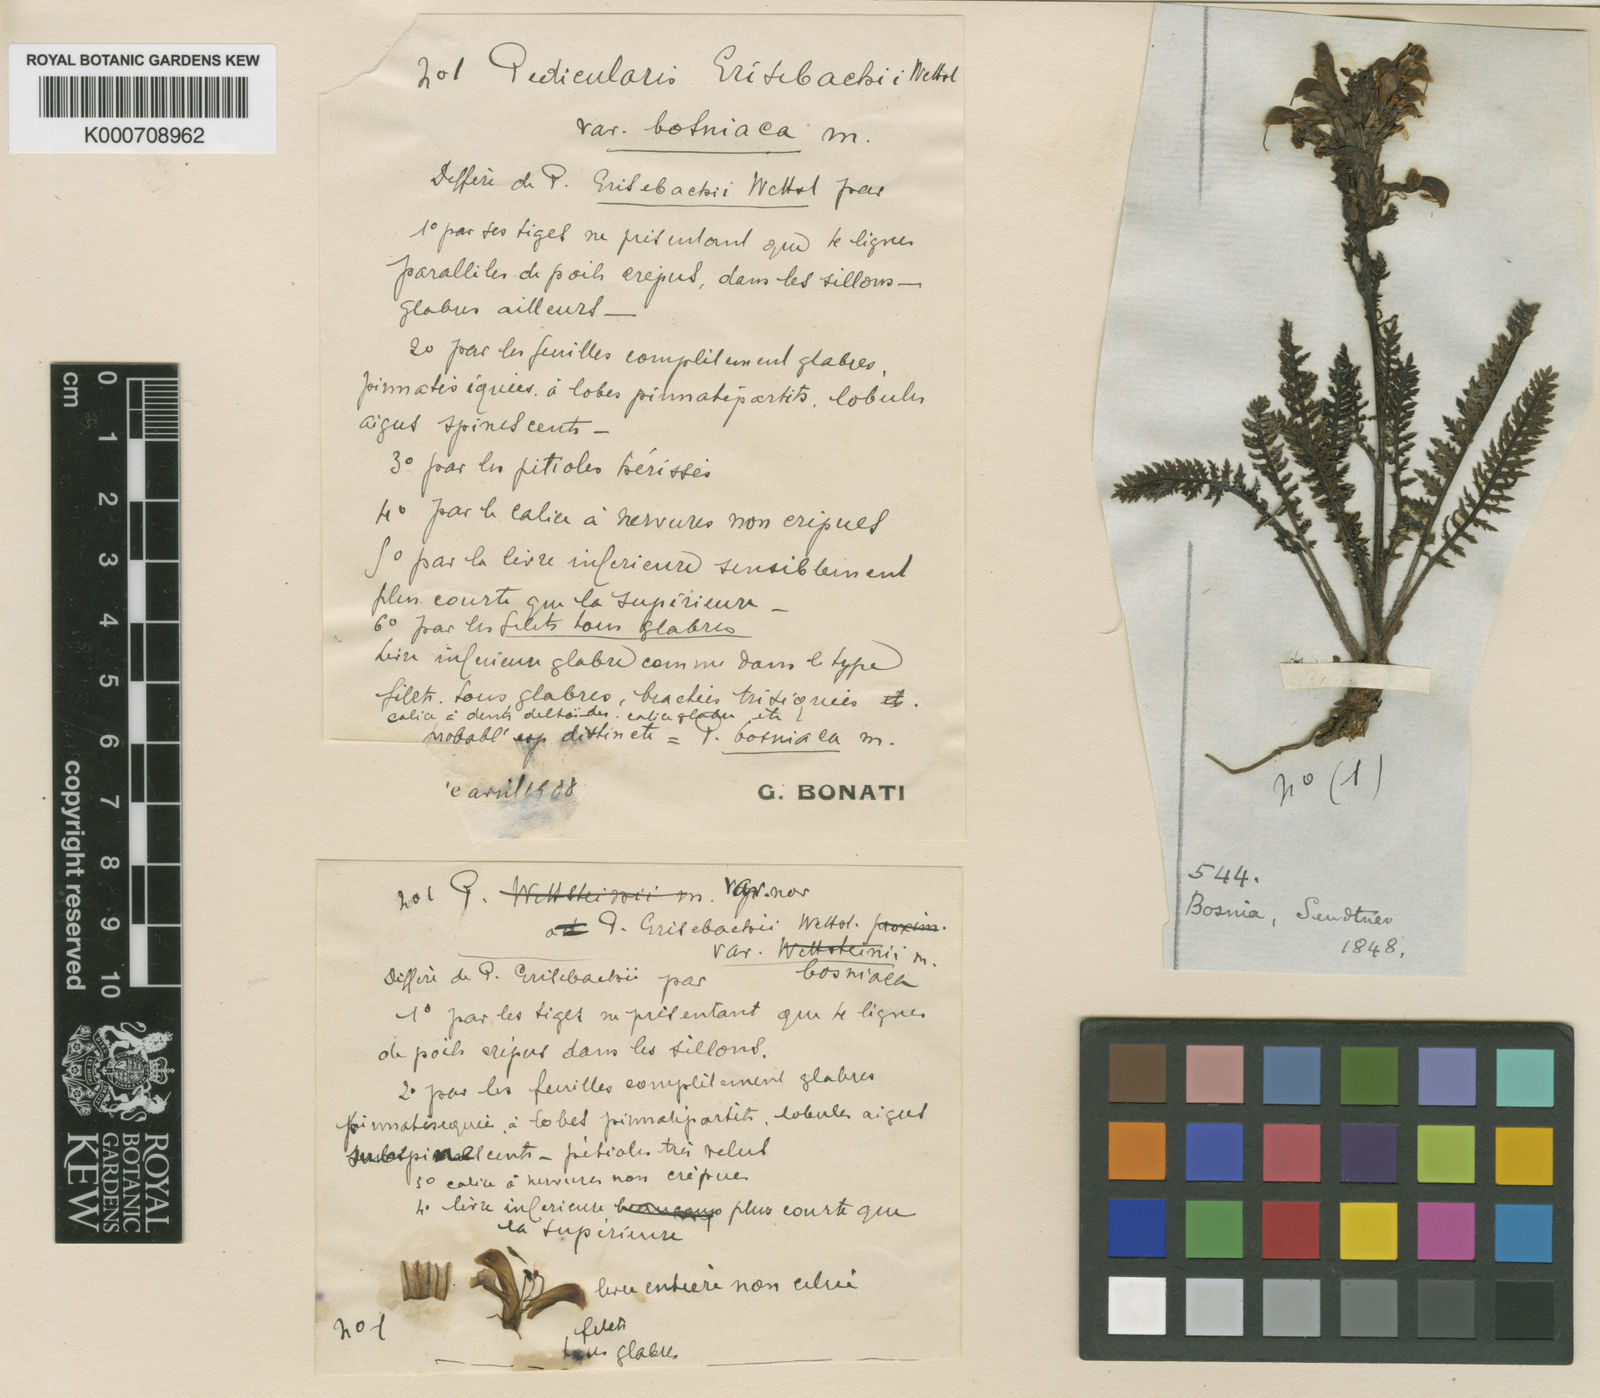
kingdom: Plantae
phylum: Tracheophyta
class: Magnoliopsida
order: Lamiales
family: Orobanchaceae
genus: Pedicularis
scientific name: Pedicularis brachyodonta
